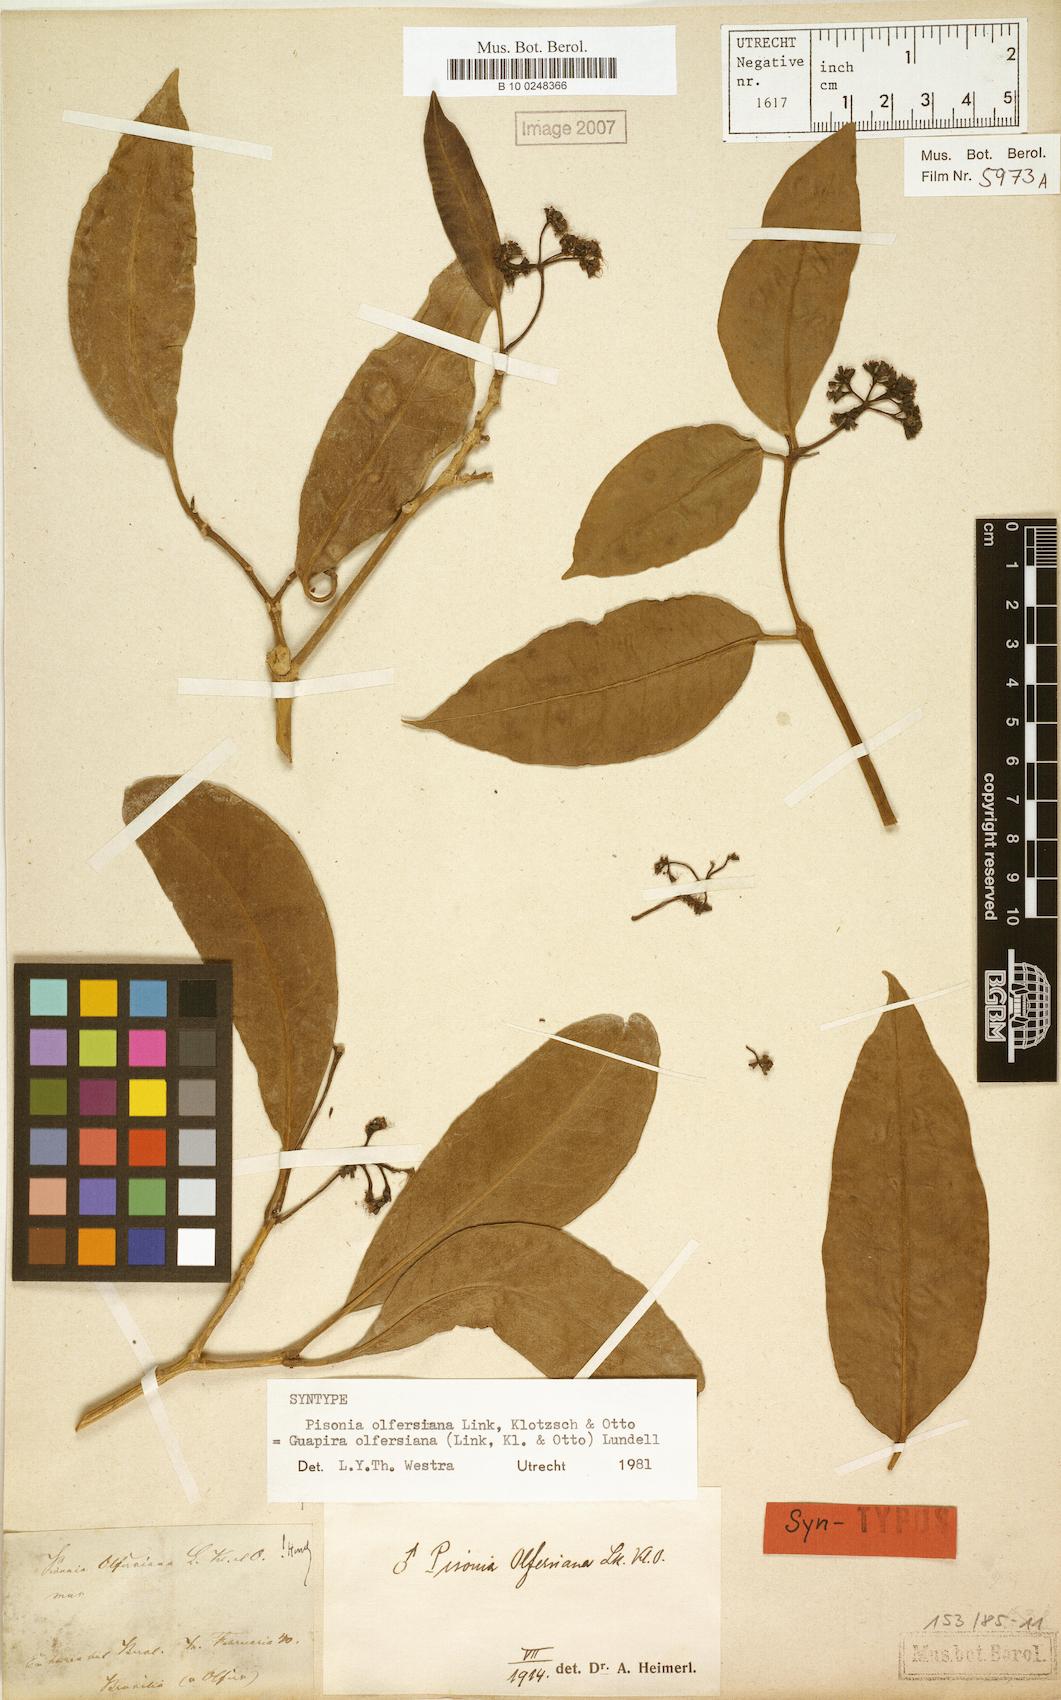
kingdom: Plantae
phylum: Tracheophyta
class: Magnoliopsida
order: Caryophyllales
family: Nyctaginaceae
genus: Guapira
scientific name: Guapira opposita
